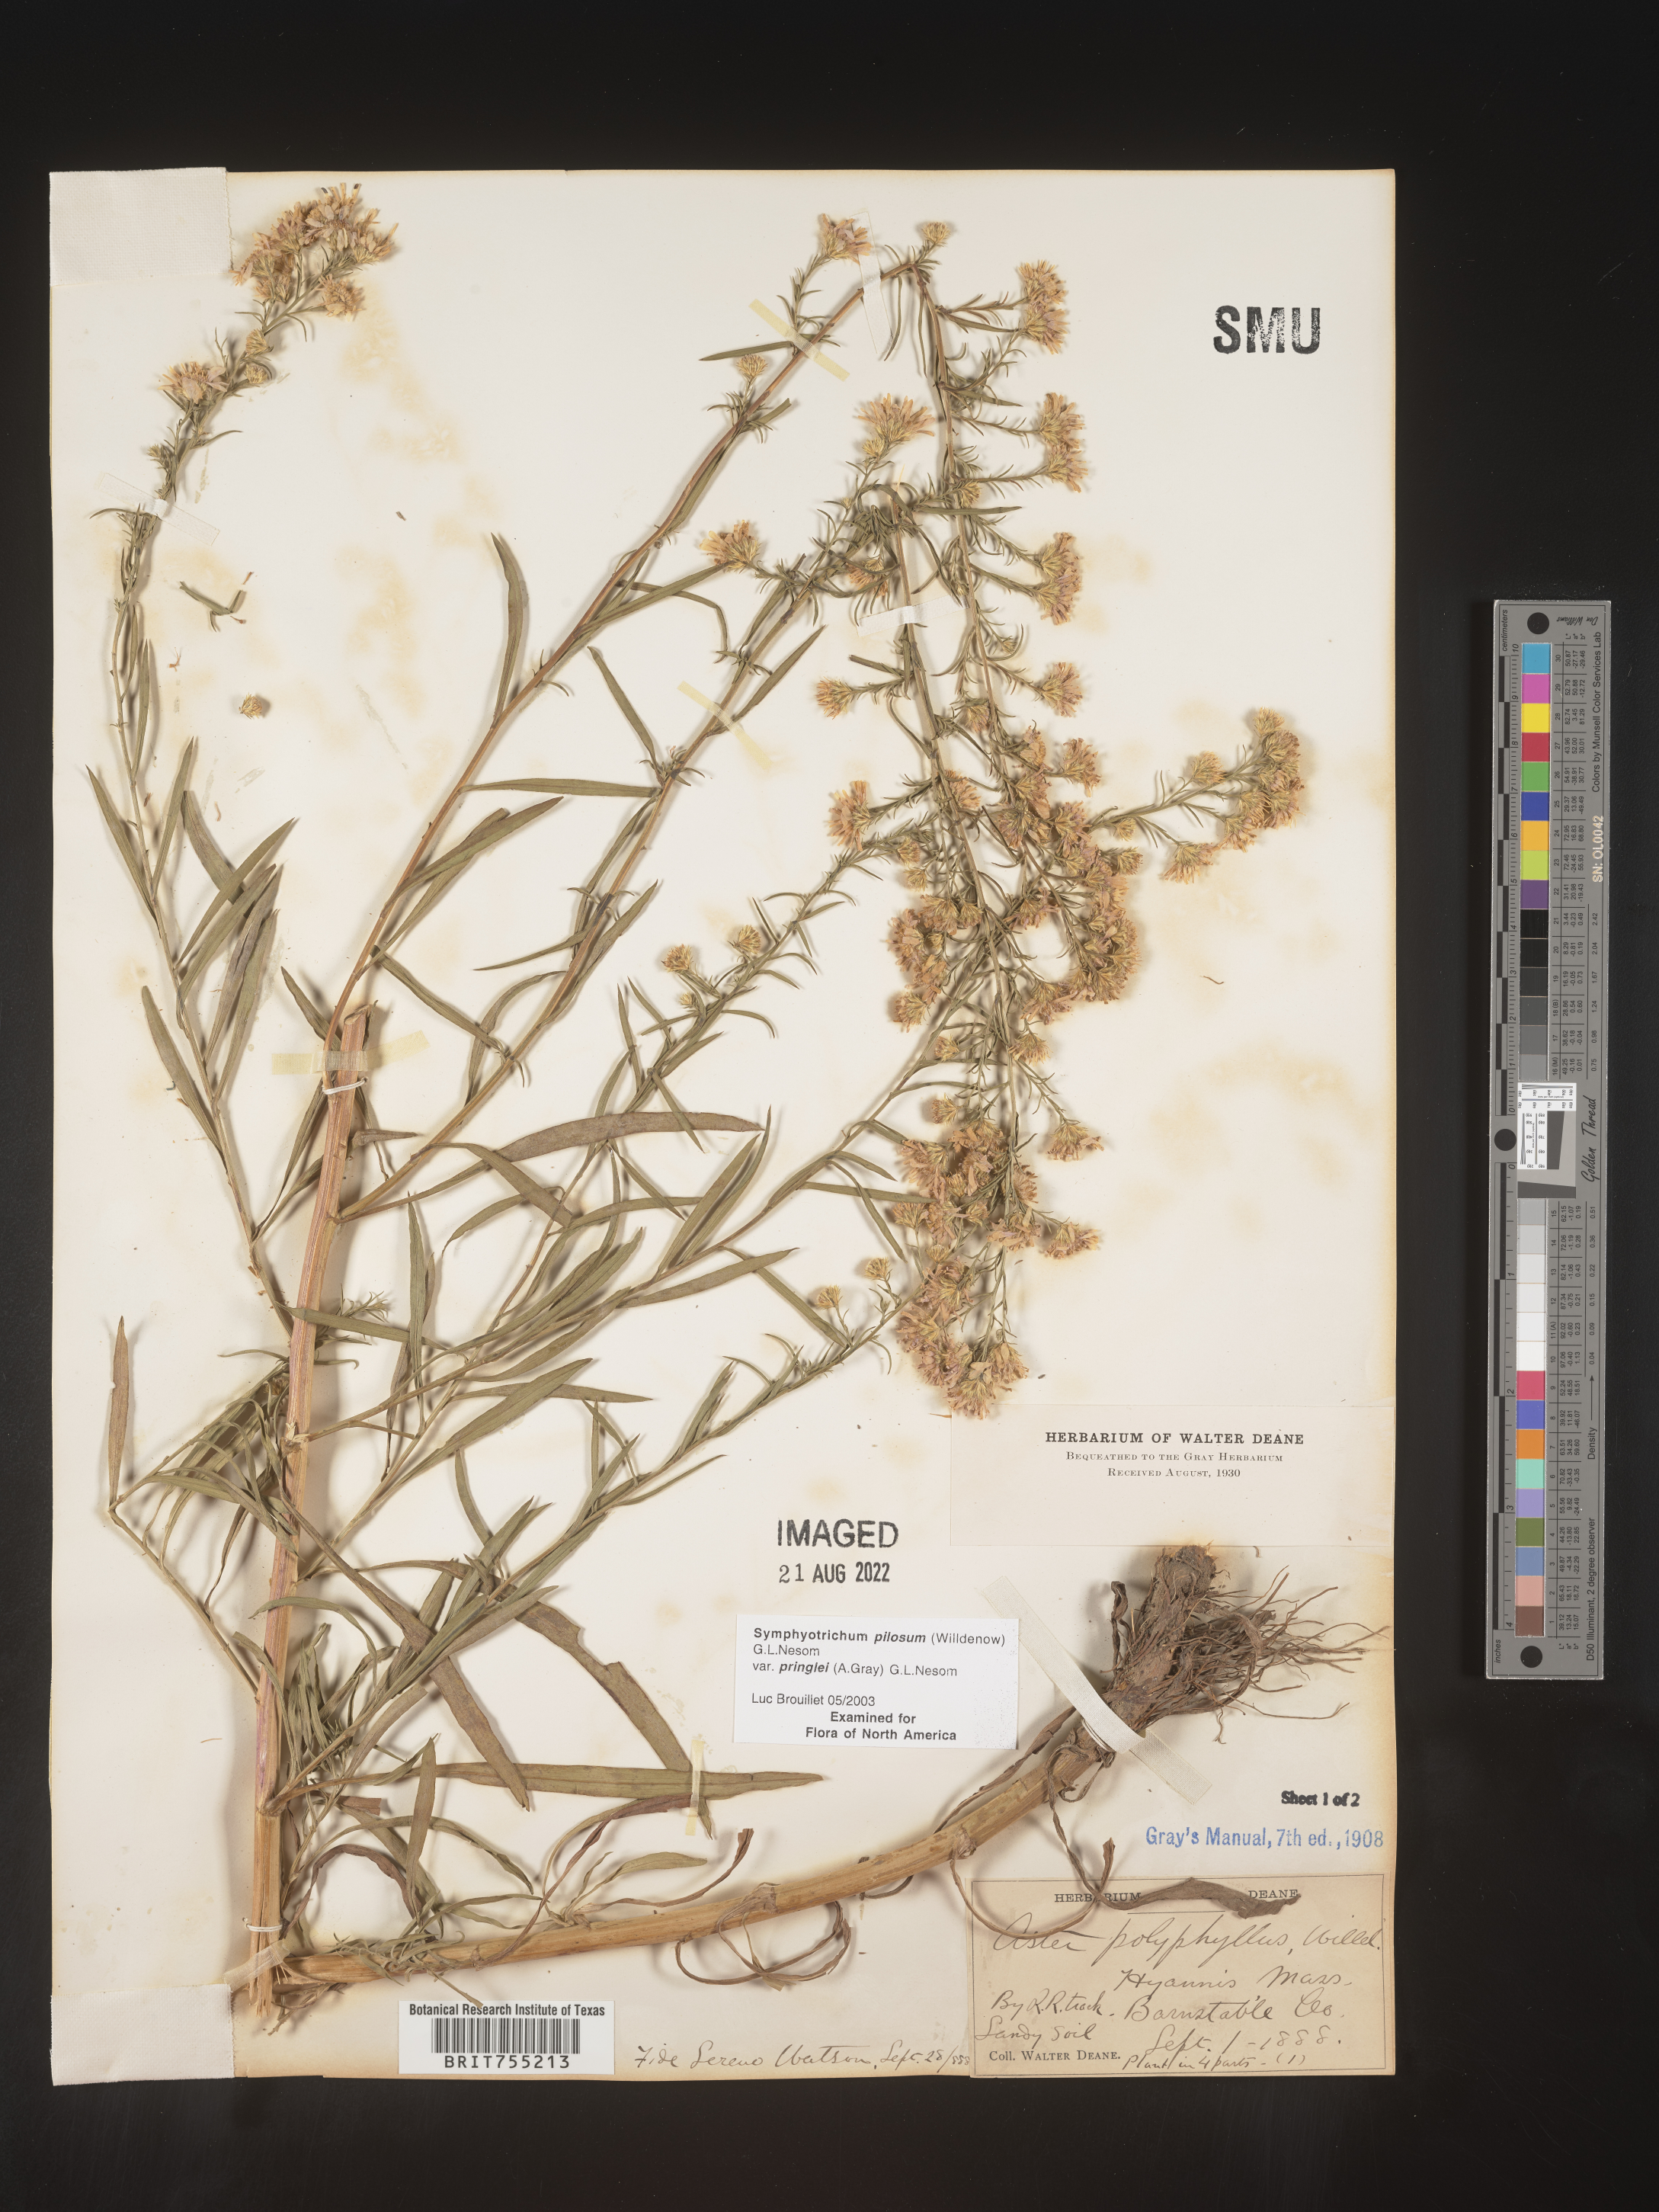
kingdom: Plantae
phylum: Tracheophyta
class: Magnoliopsida
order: Asterales
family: Asteraceae
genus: Symphyotrichum
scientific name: Symphyotrichum pilosum
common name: Awl aster
